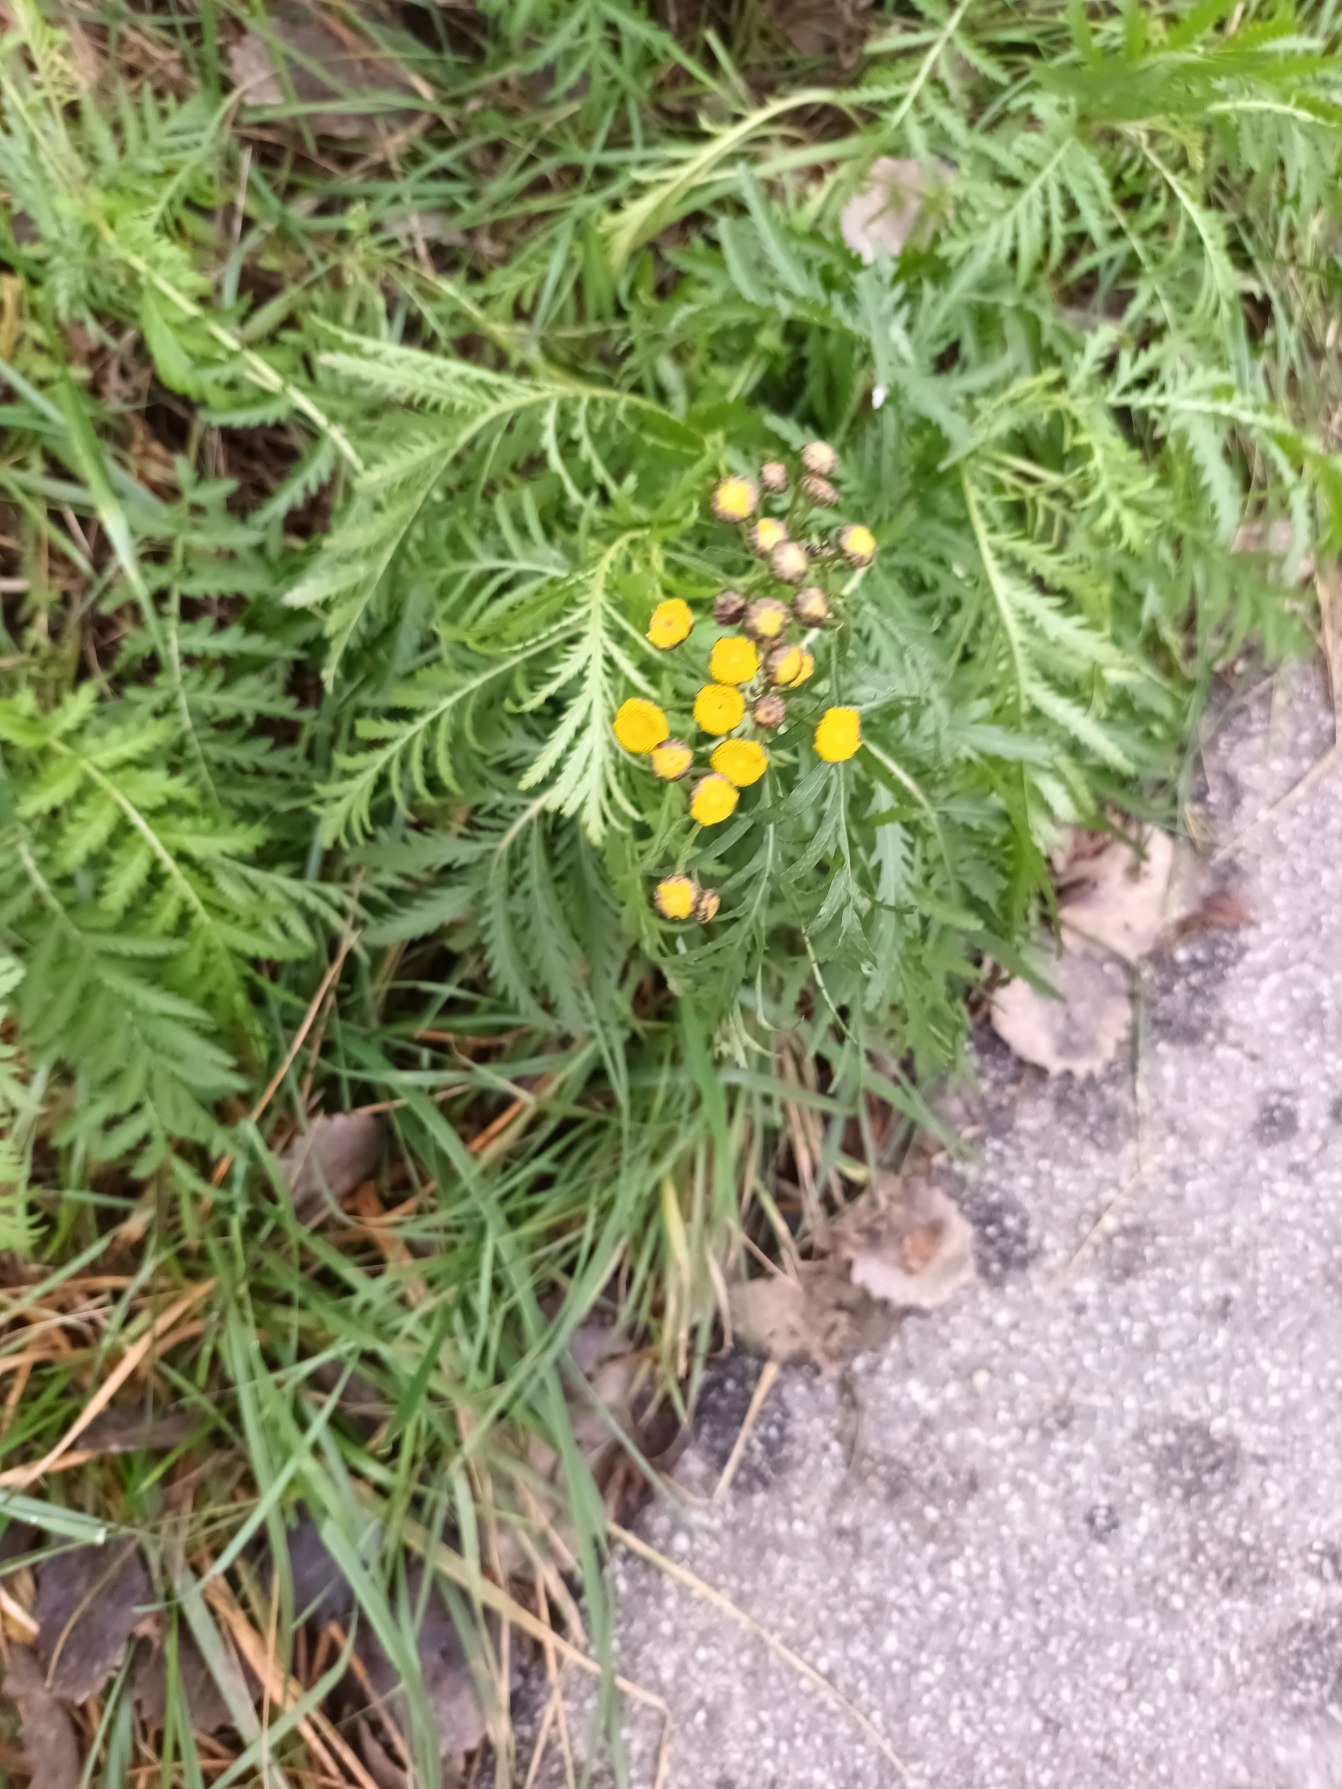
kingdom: Plantae
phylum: Tracheophyta
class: Magnoliopsida
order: Asterales
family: Asteraceae
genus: Tanacetum
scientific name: Tanacetum vulgare
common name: Rejnfan
